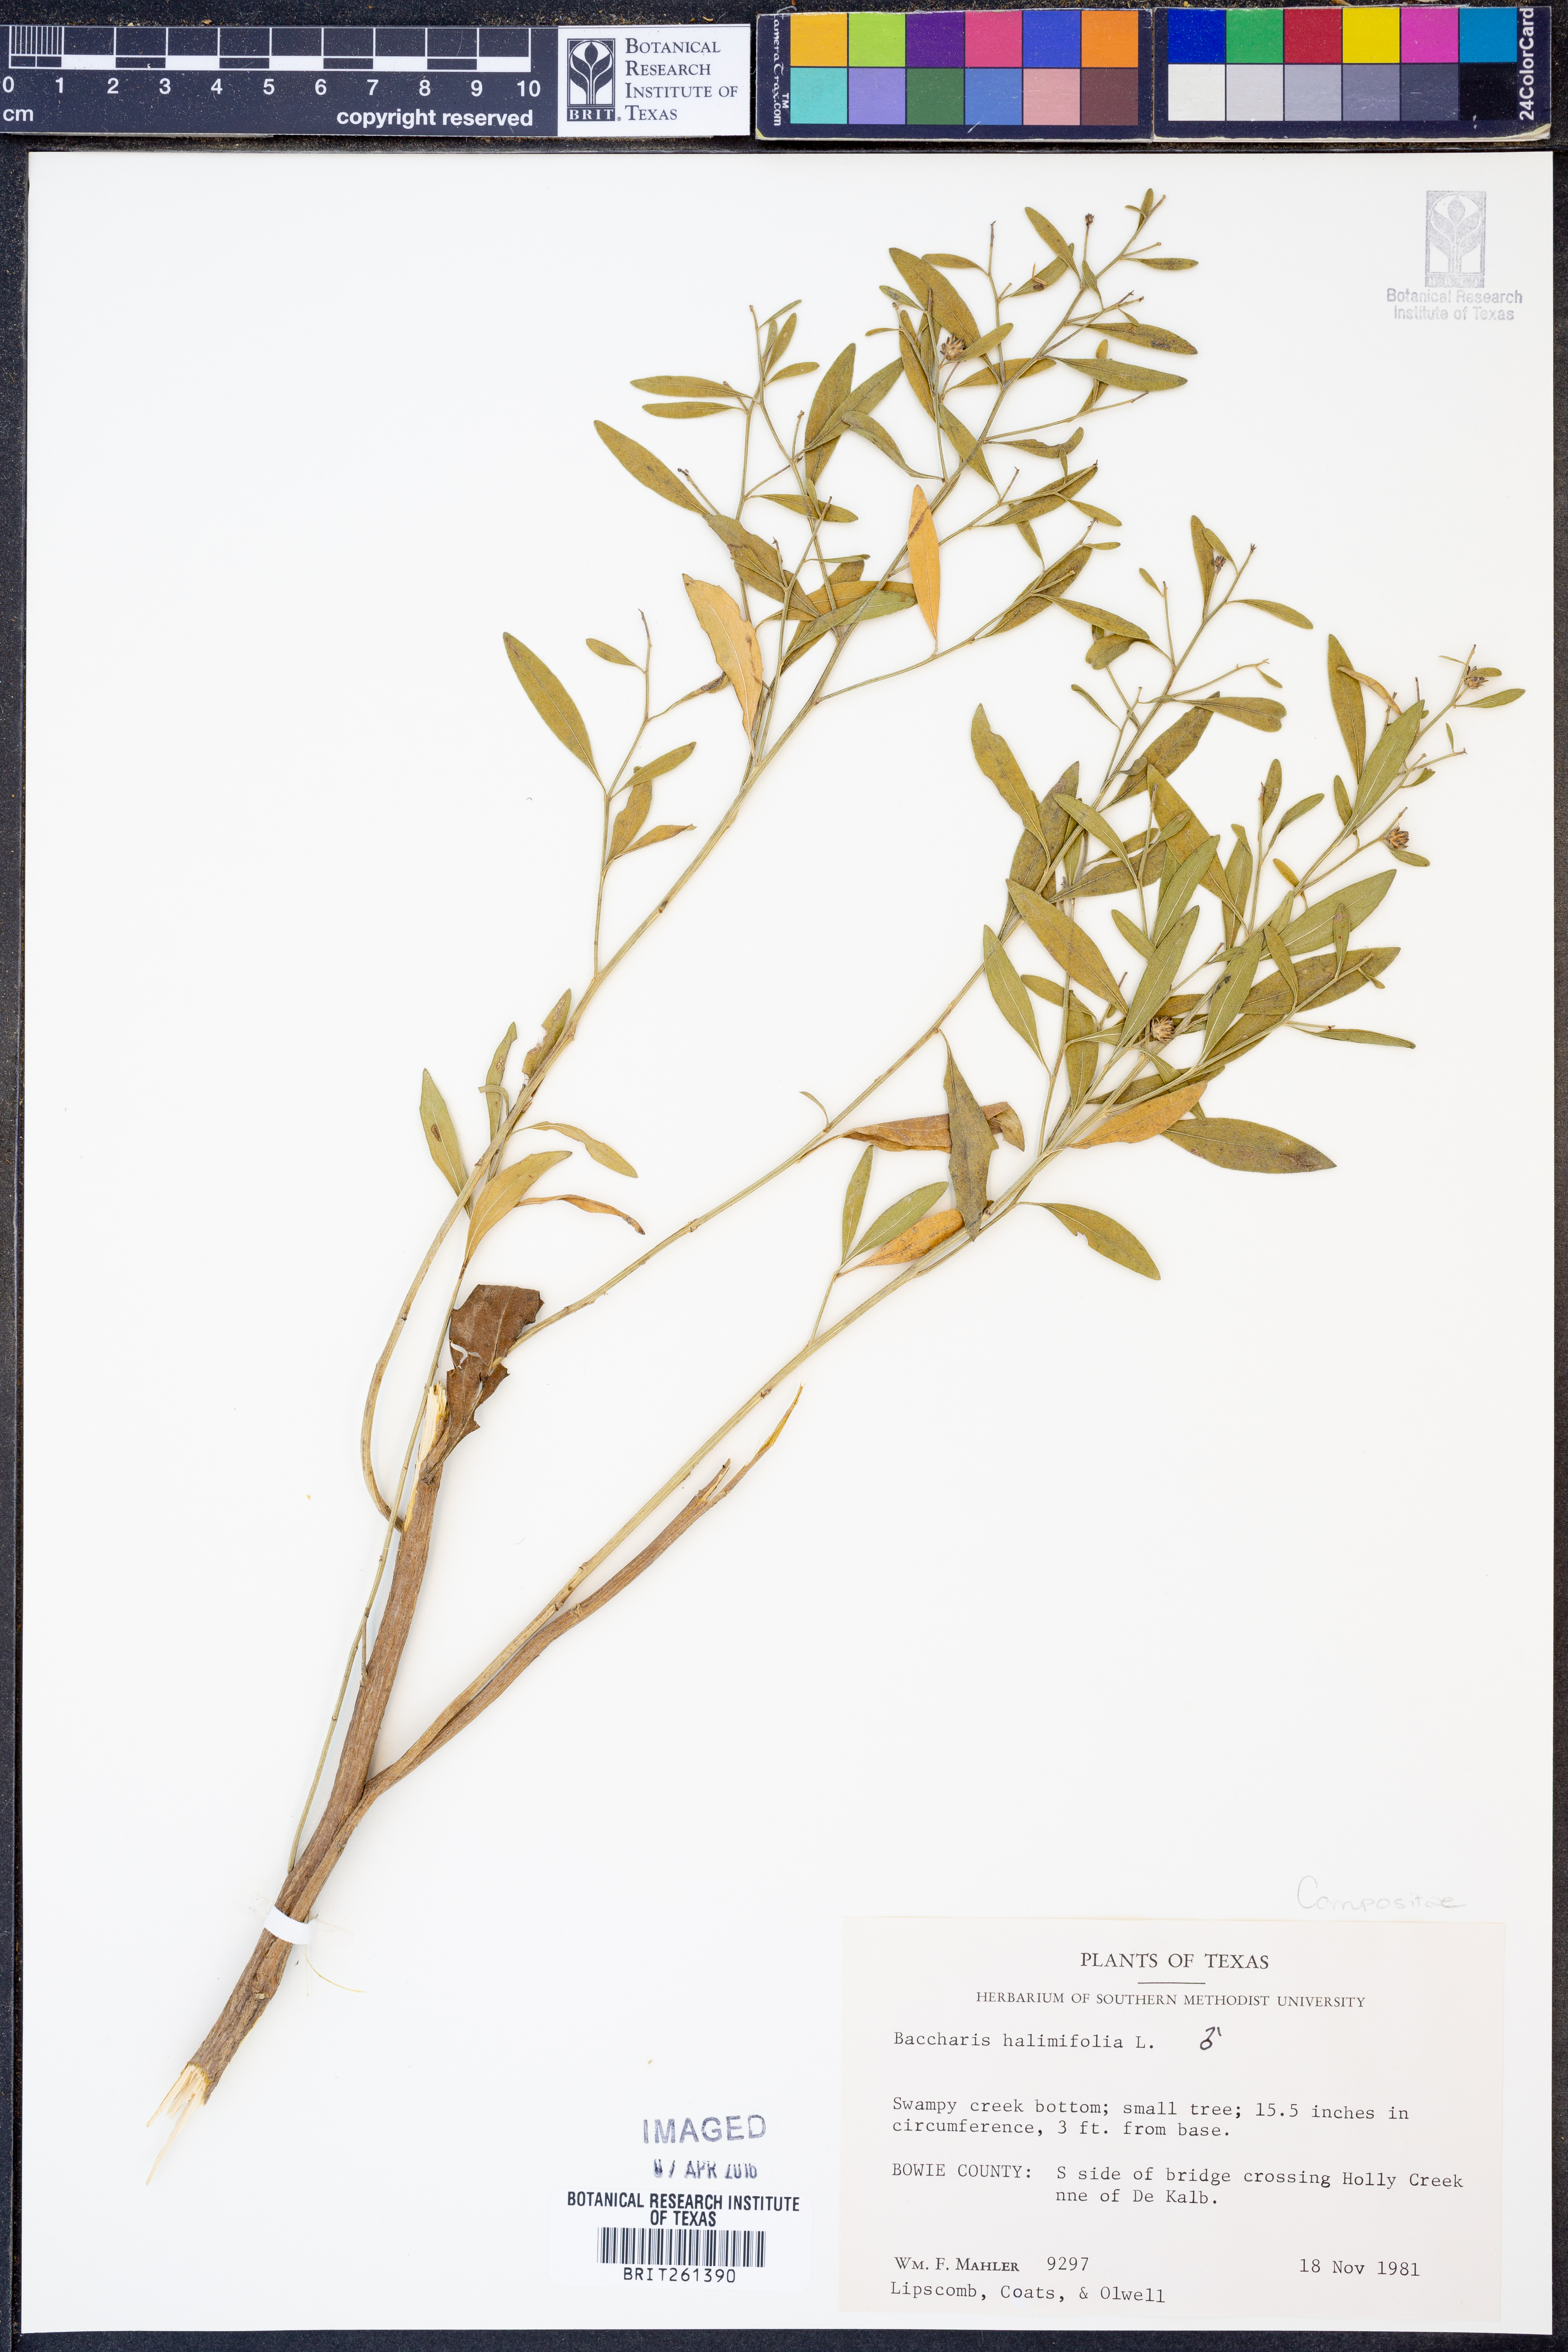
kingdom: Plantae
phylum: Tracheophyta
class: Magnoliopsida
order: Asterales
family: Asteraceae
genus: Nidorella
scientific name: Nidorella ivifolia
